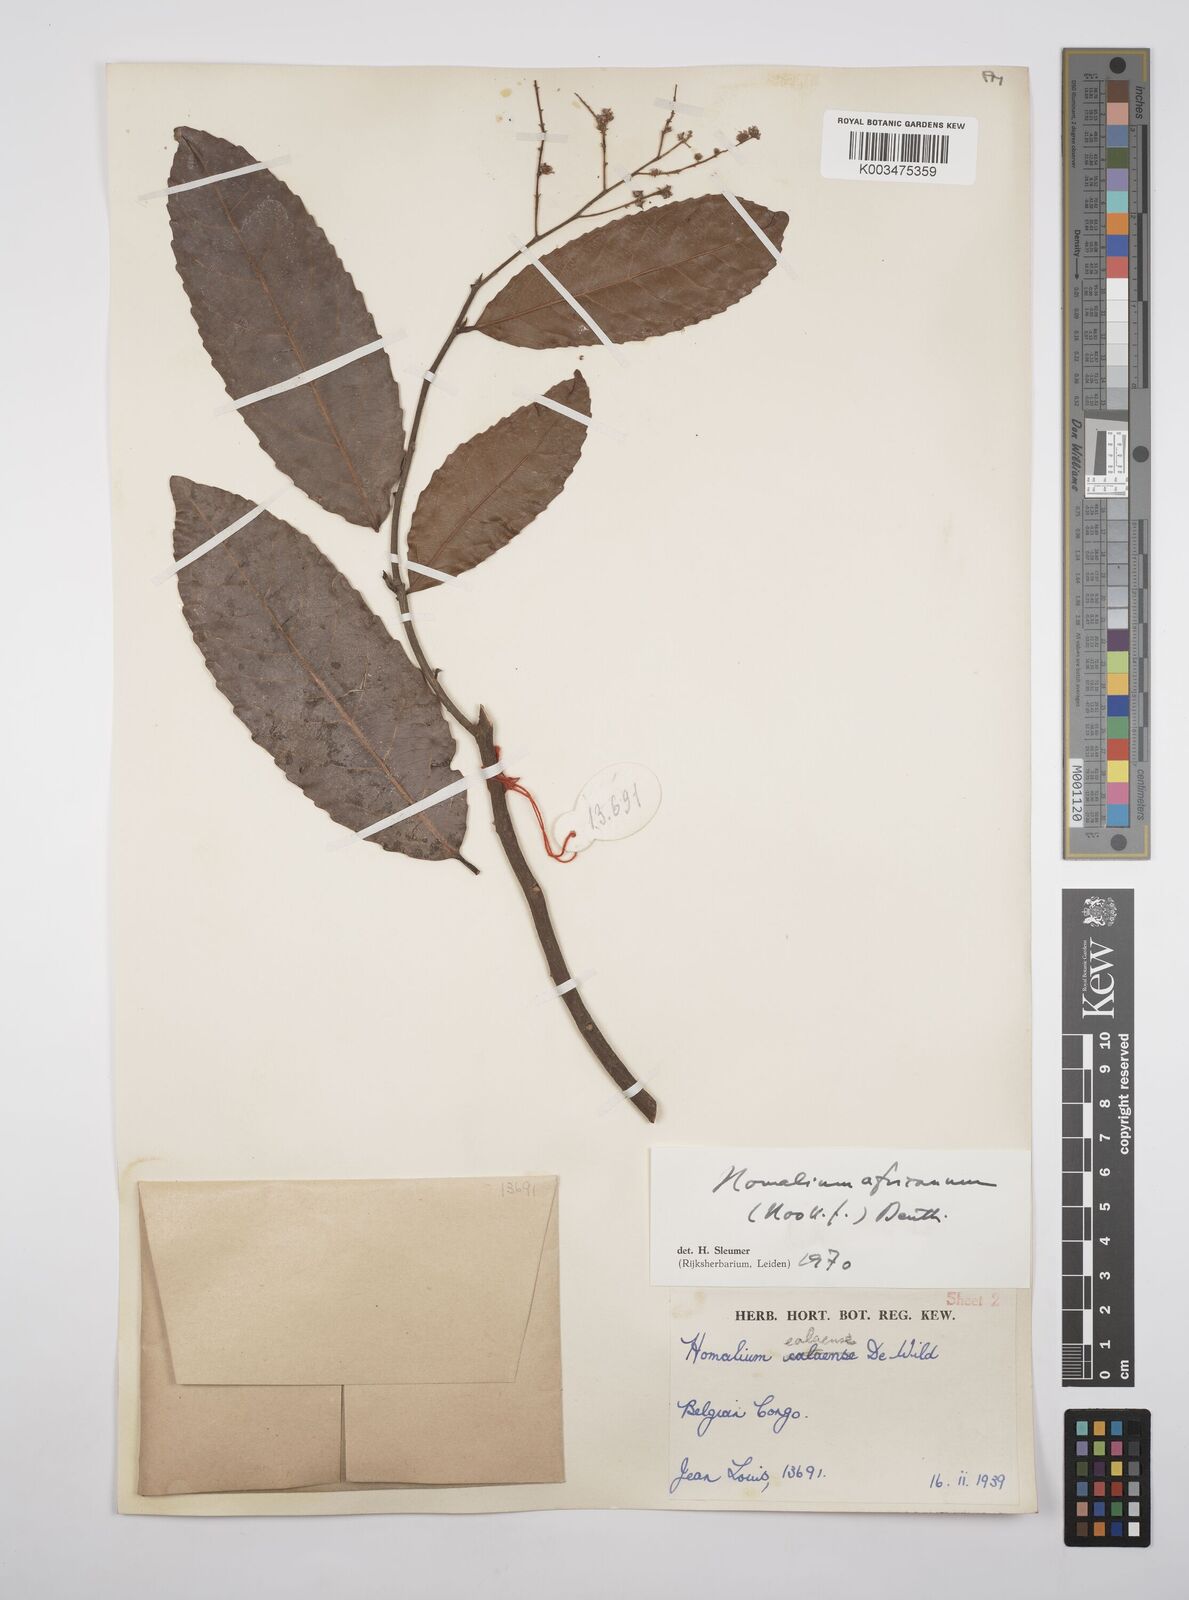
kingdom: Plantae
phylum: Tracheophyta
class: Magnoliopsida
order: Malpighiales
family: Salicaceae
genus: Homalium
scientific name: Homalium africanum
